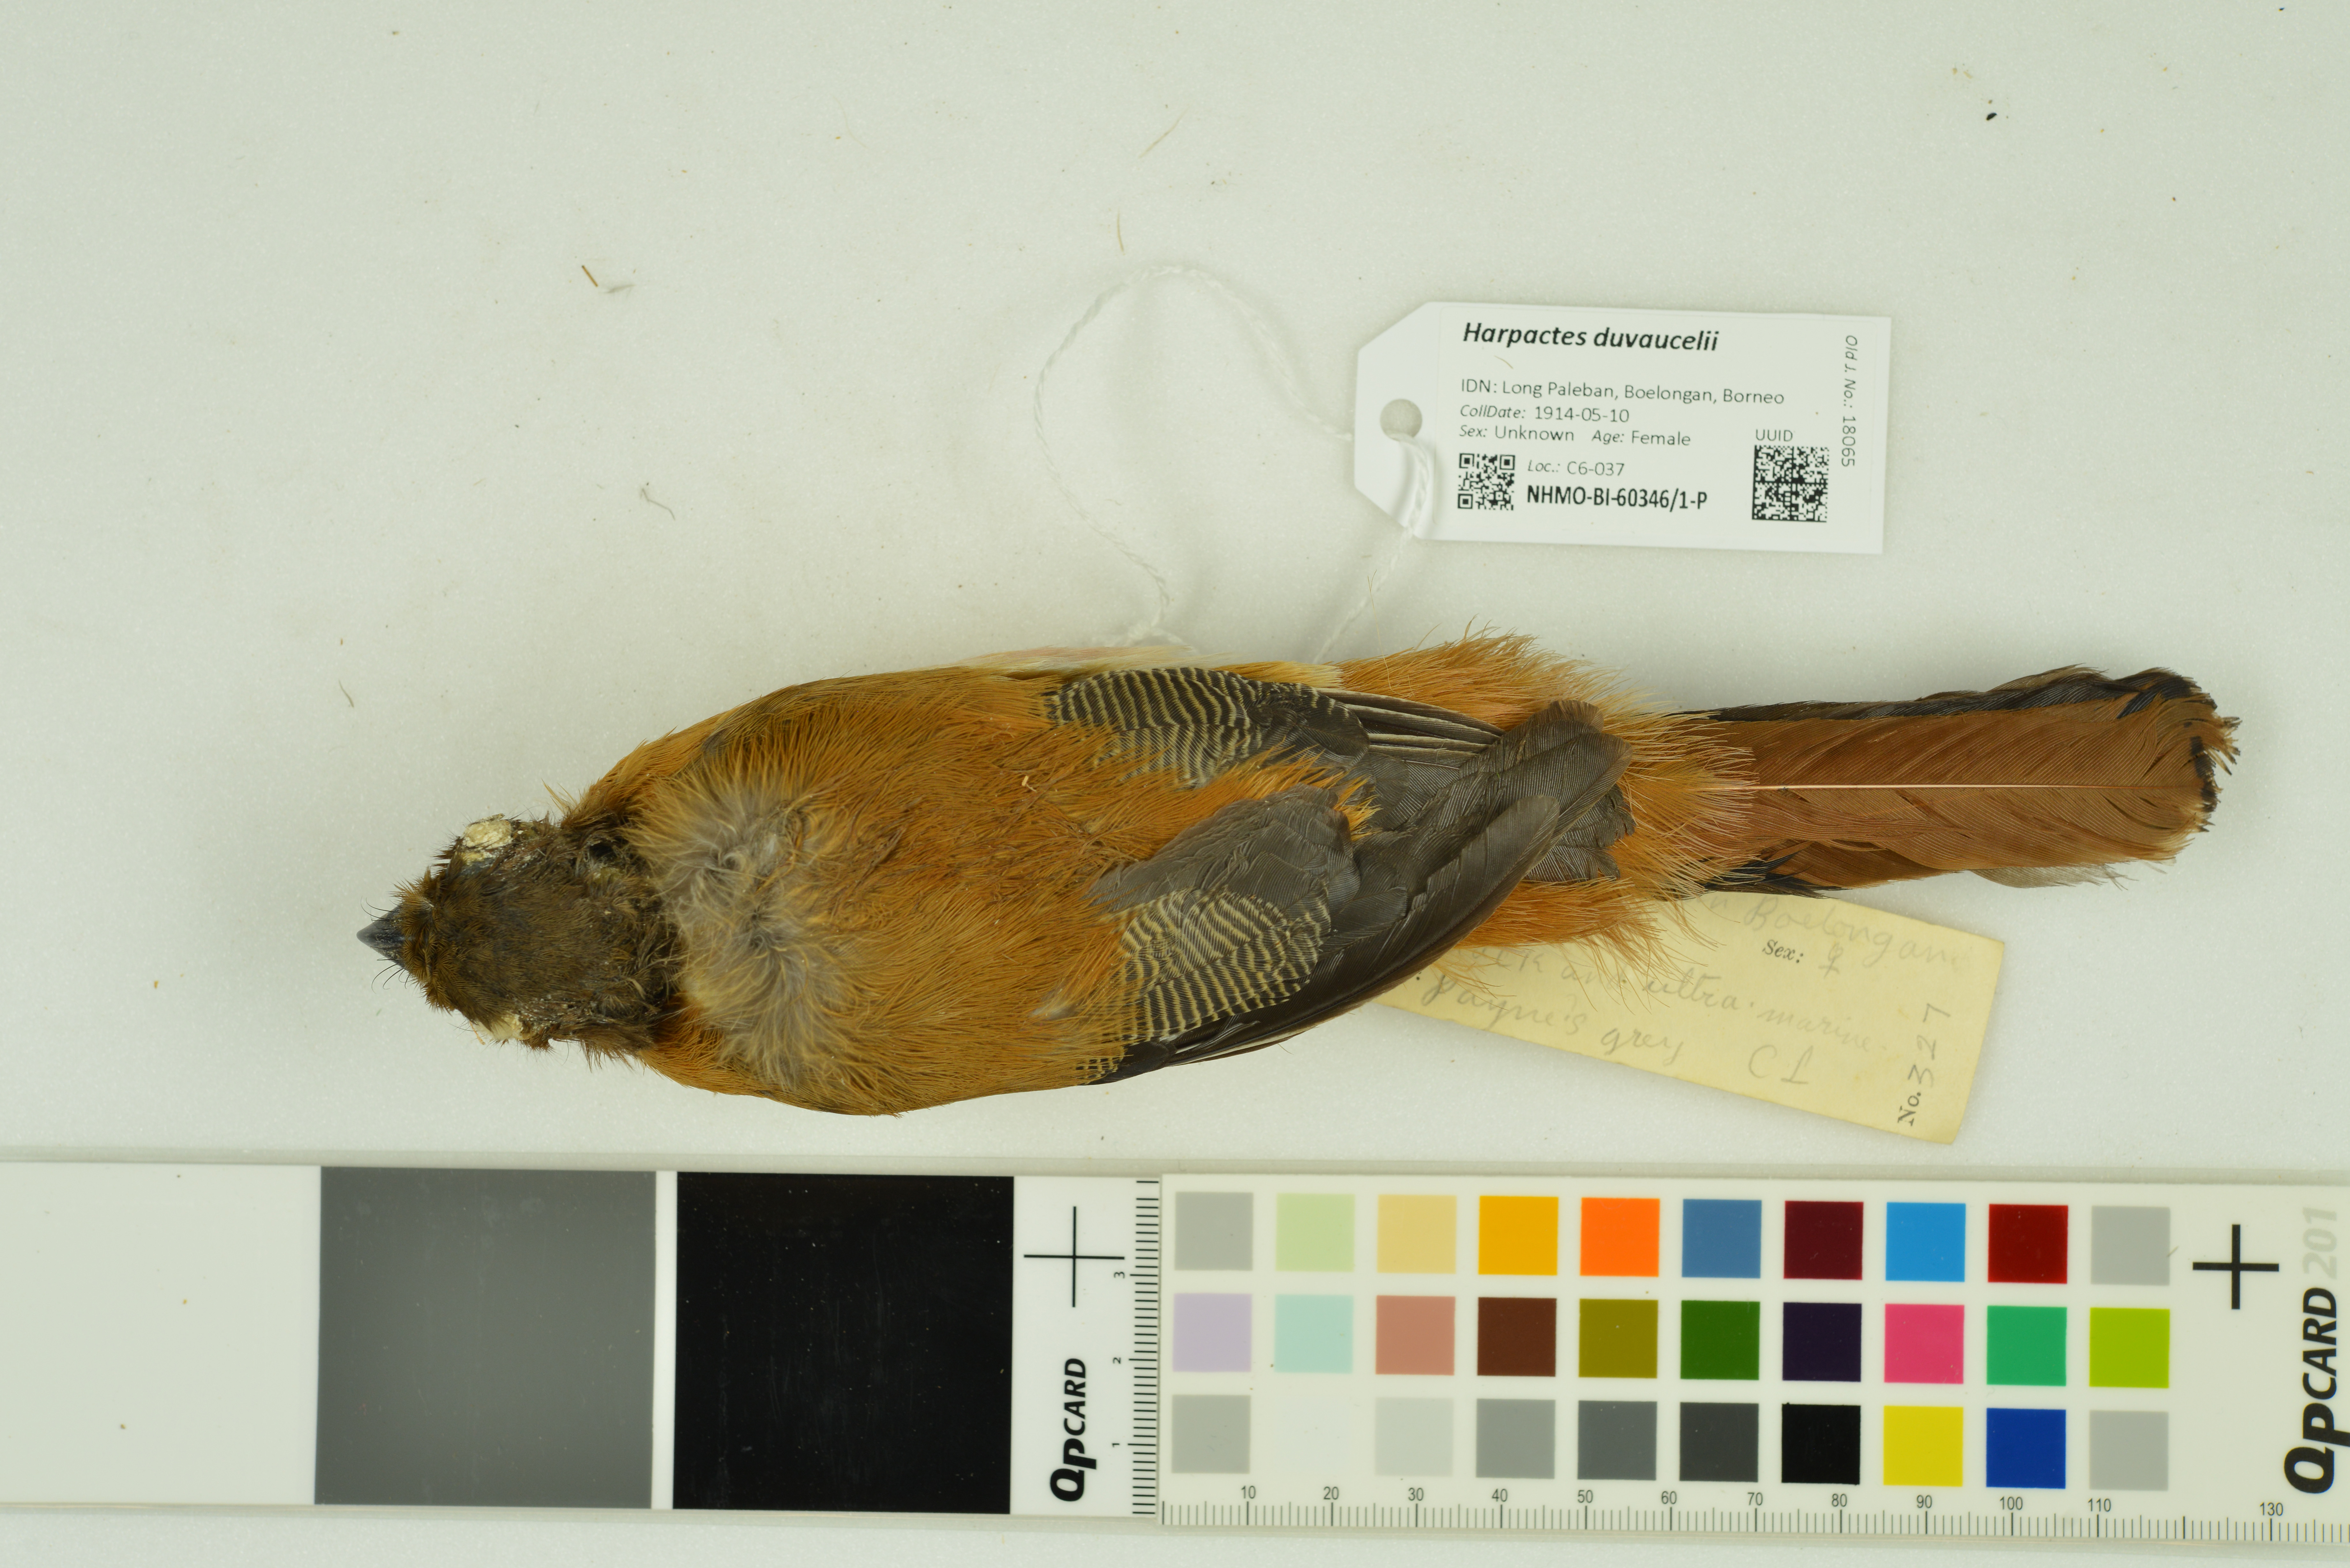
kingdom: Animalia
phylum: Chordata
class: Aves
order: Trogoniformes
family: Trogonidae
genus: Harpactes
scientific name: Harpactes duvaucelii
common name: Scarlet-rumped trogon
